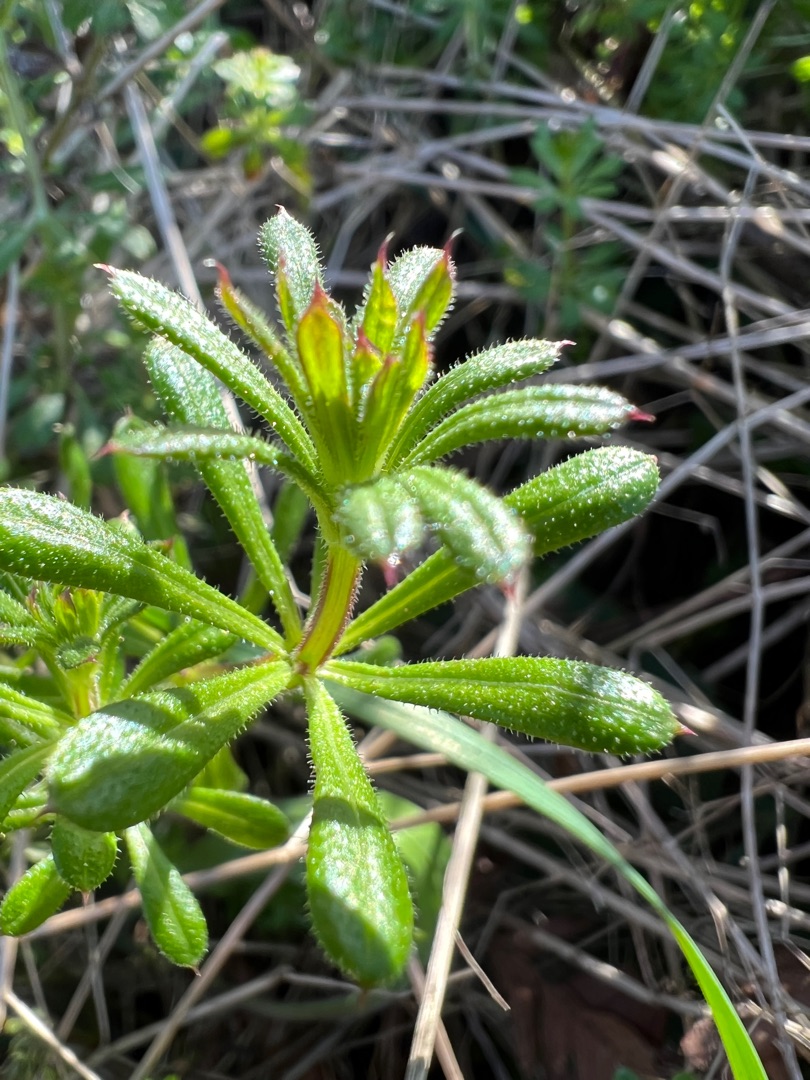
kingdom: Plantae
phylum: Tracheophyta
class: Magnoliopsida
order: Gentianales
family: Rubiaceae
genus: Galium
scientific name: Galium aparine
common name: Burre-snerre
